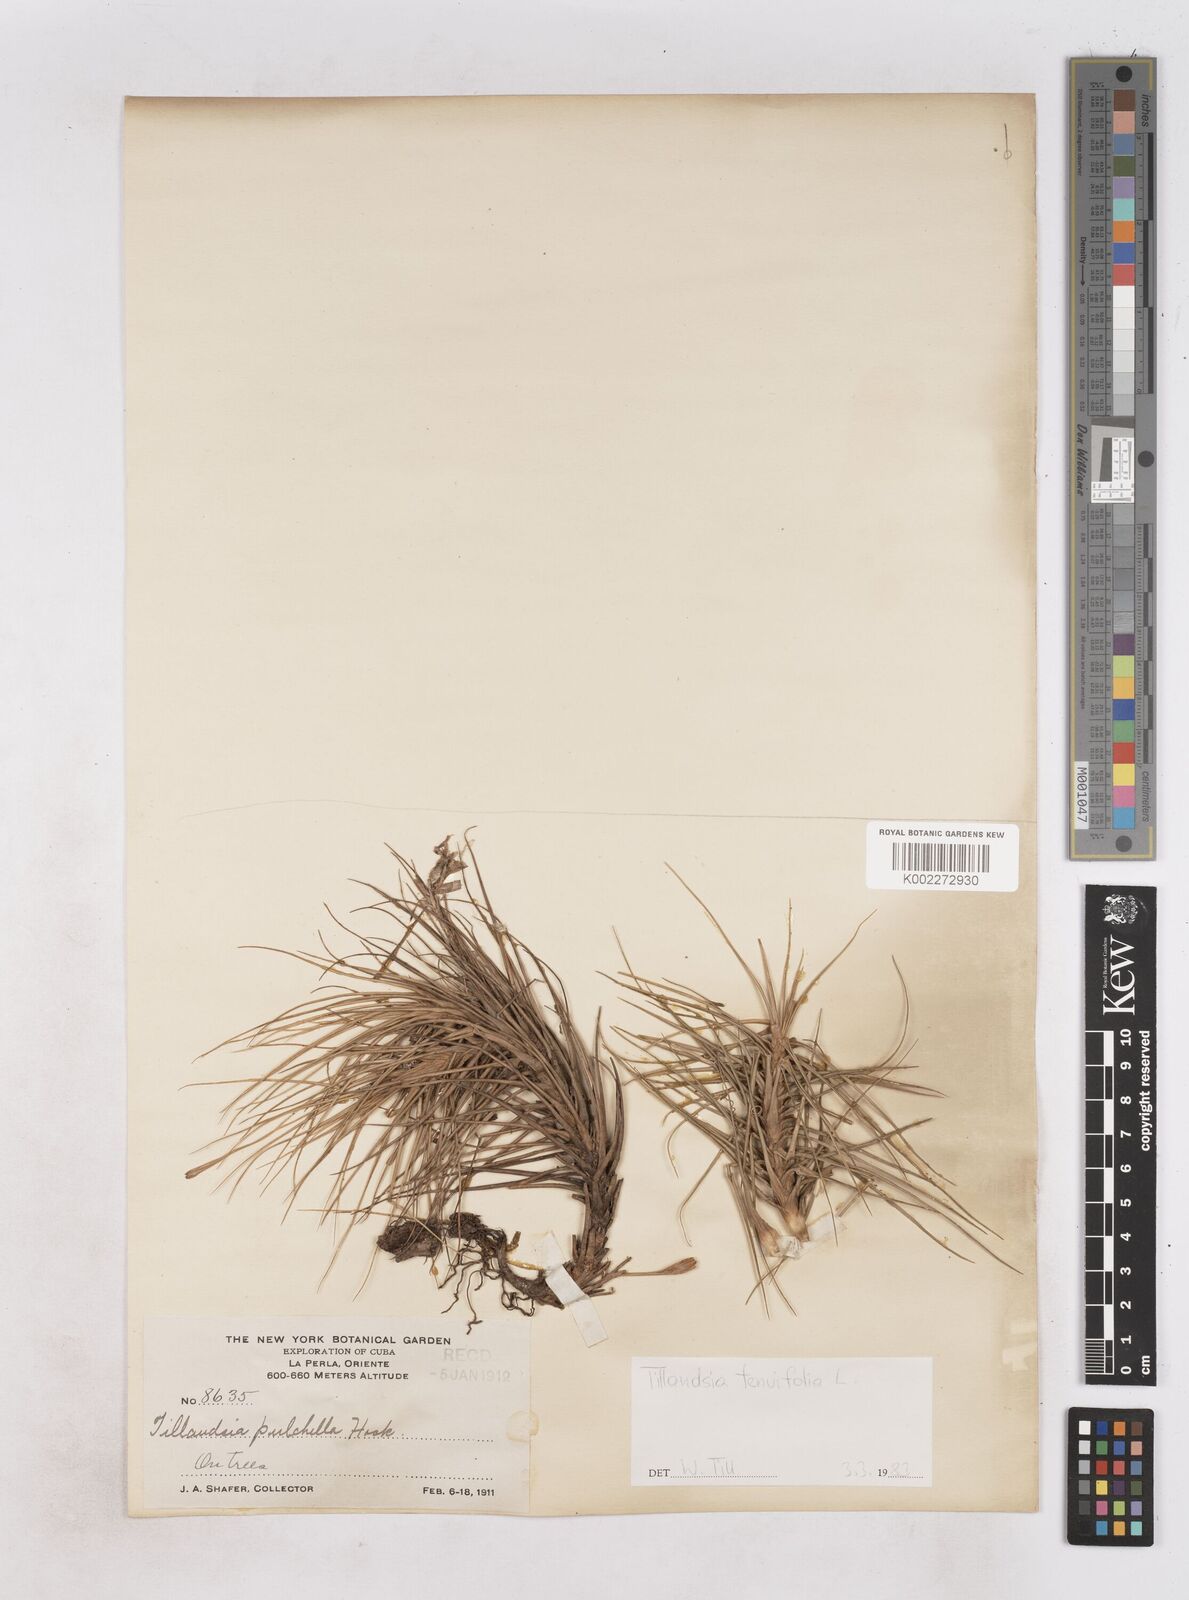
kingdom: Plantae
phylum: Tracheophyta
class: Liliopsida
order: Poales
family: Bromeliaceae
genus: Tillandsia
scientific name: Tillandsia tenuifolia
